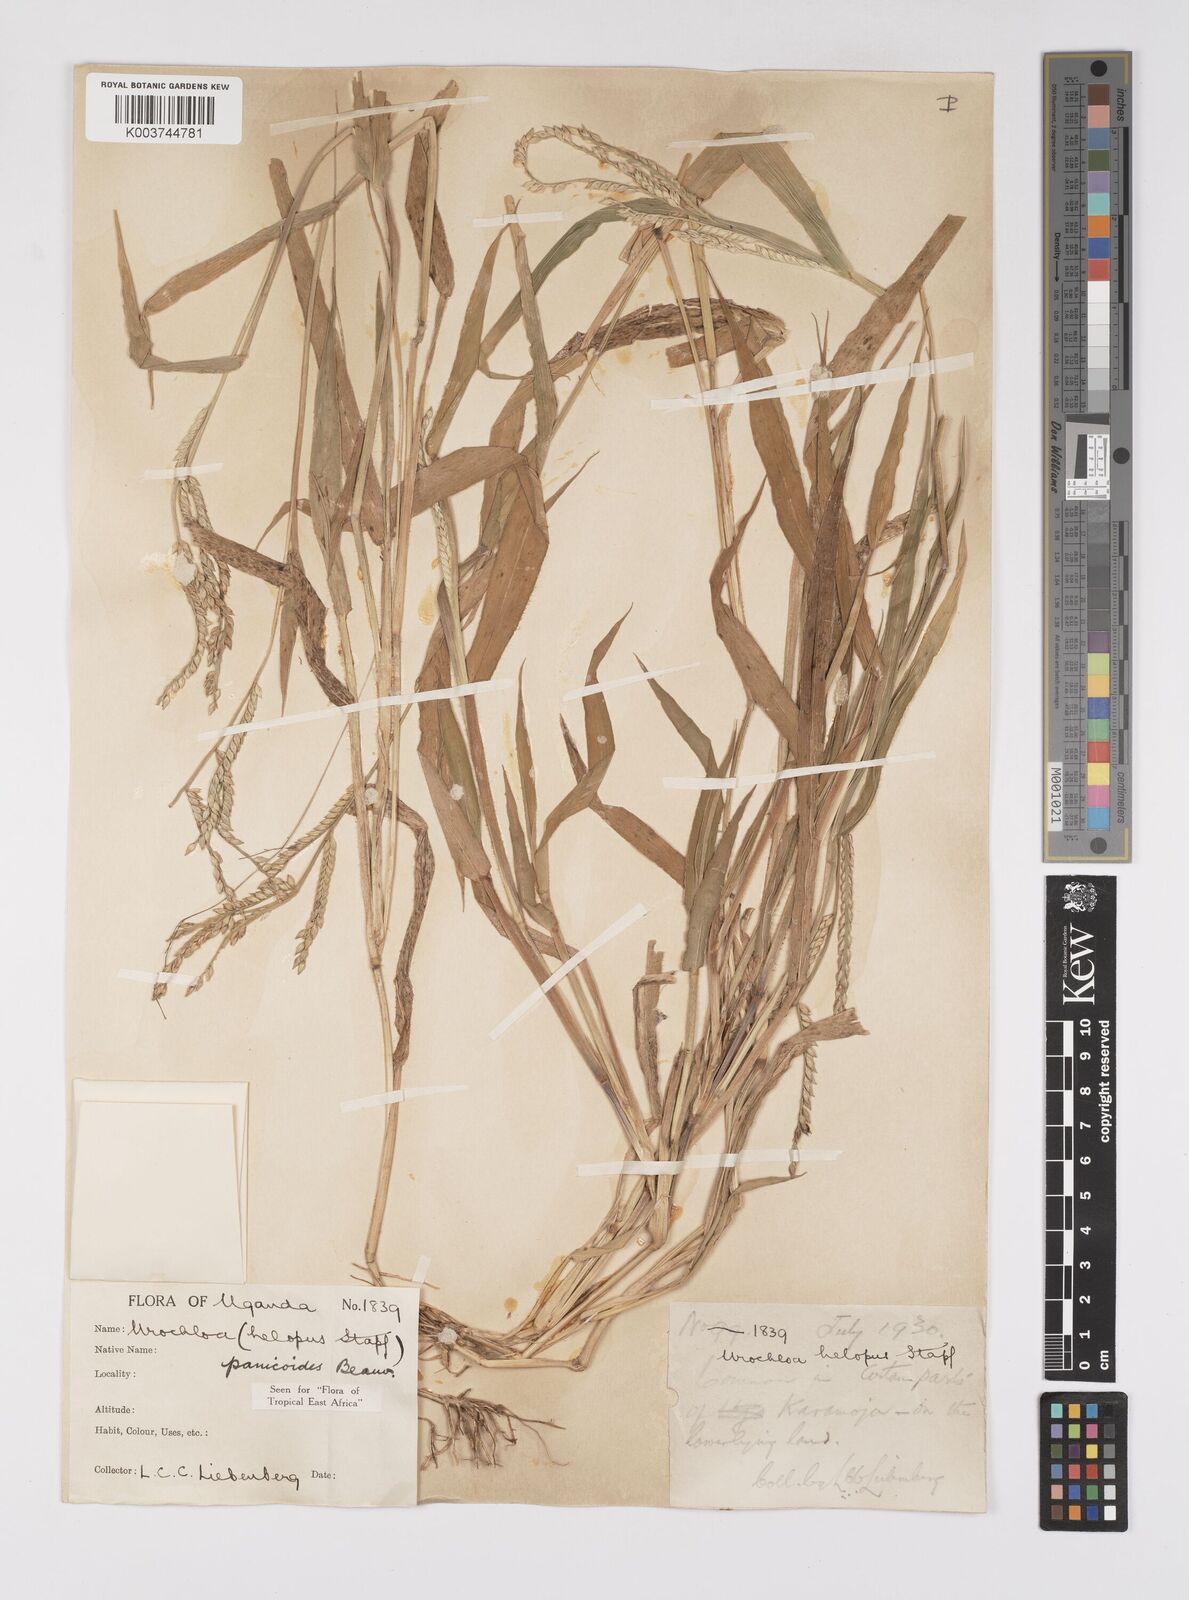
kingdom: Plantae
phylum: Tracheophyta
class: Liliopsida
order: Poales
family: Poaceae
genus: Urochloa
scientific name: Urochloa panicoides
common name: Sharp-flowered signal-grass
